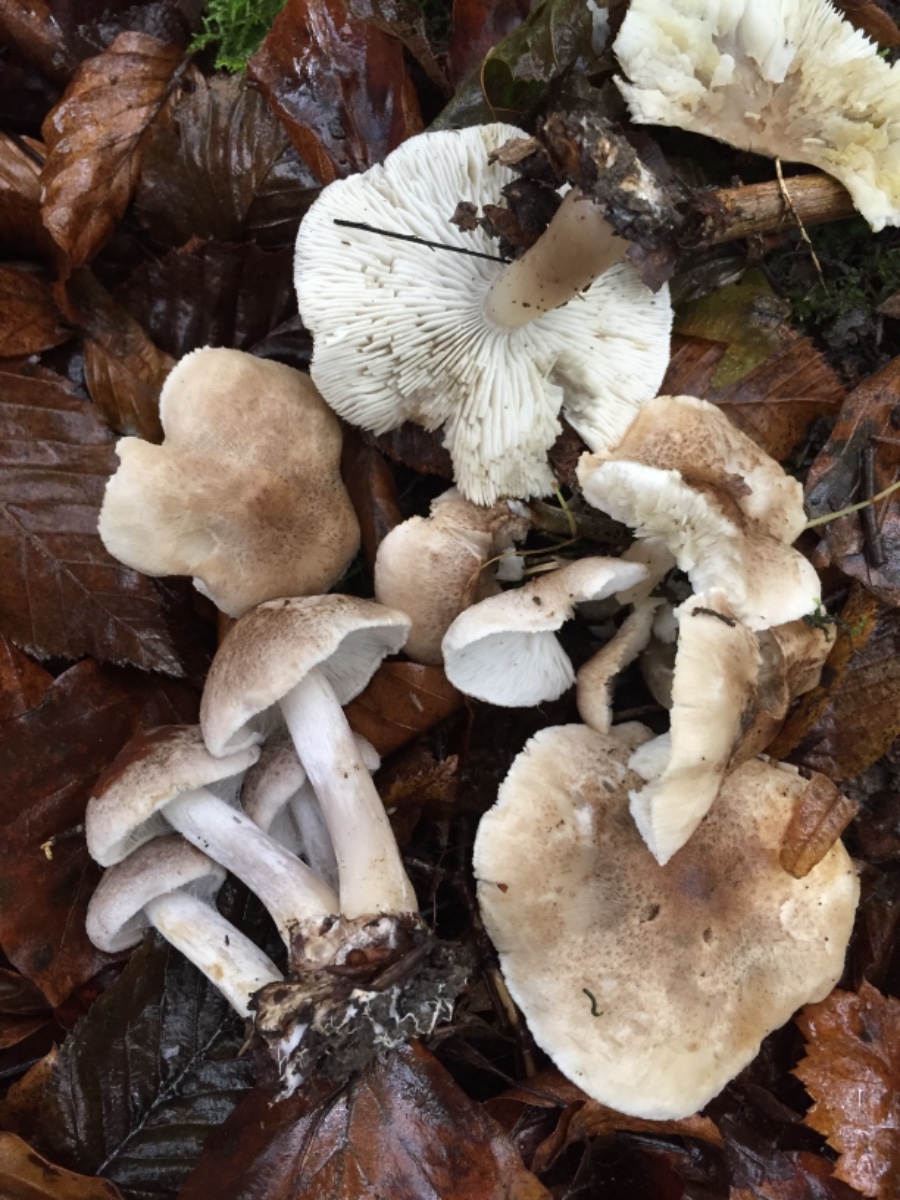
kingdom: Fungi
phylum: Basidiomycota
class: Agaricomycetes
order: Agaricales
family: Tricholomataceae
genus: Tricholoma
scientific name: Tricholoma scalpturatum
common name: gulplettet ridderhat
